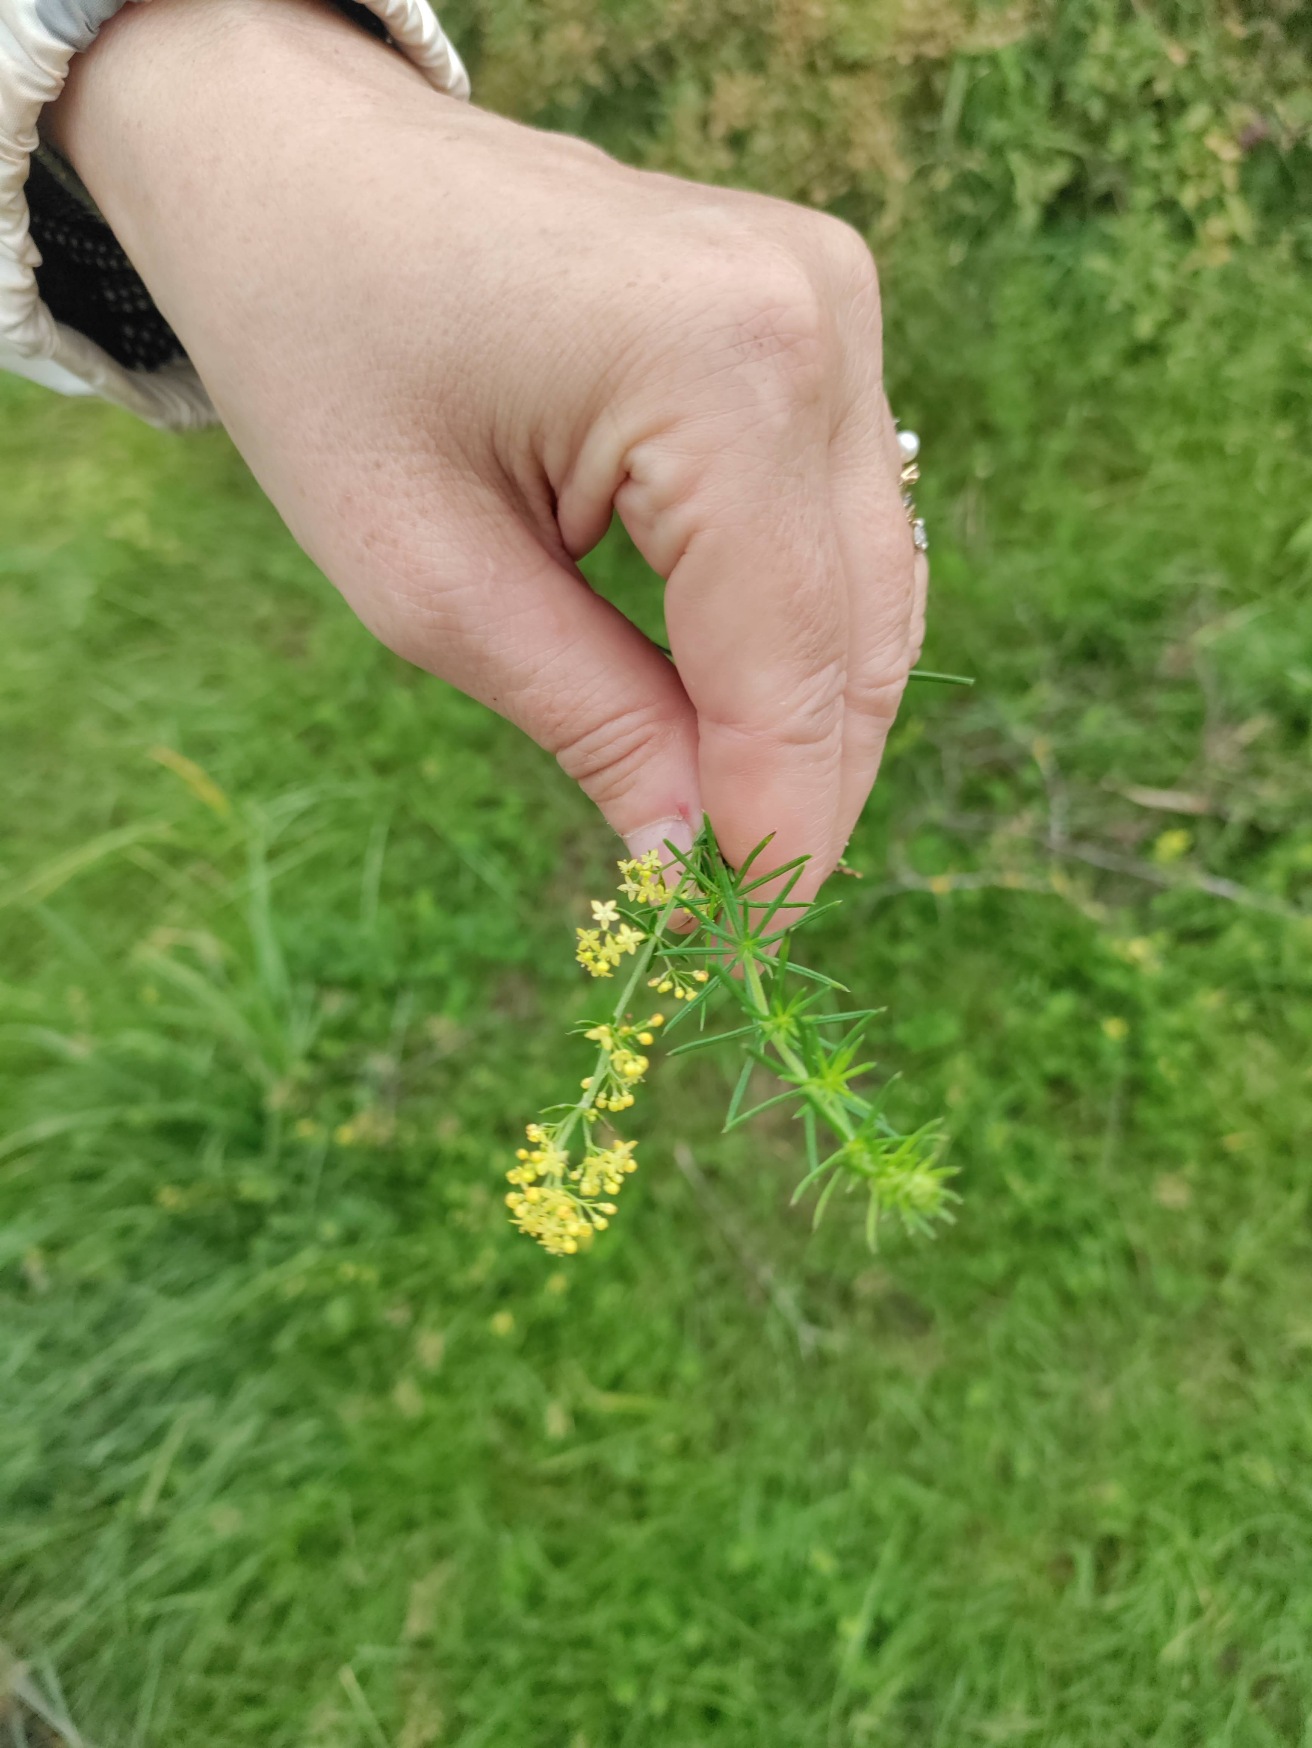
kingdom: Plantae
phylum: Tracheophyta
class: Magnoliopsida
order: Gentianales
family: Rubiaceae
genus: Galium
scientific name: Galium verum
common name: Gul snerre
